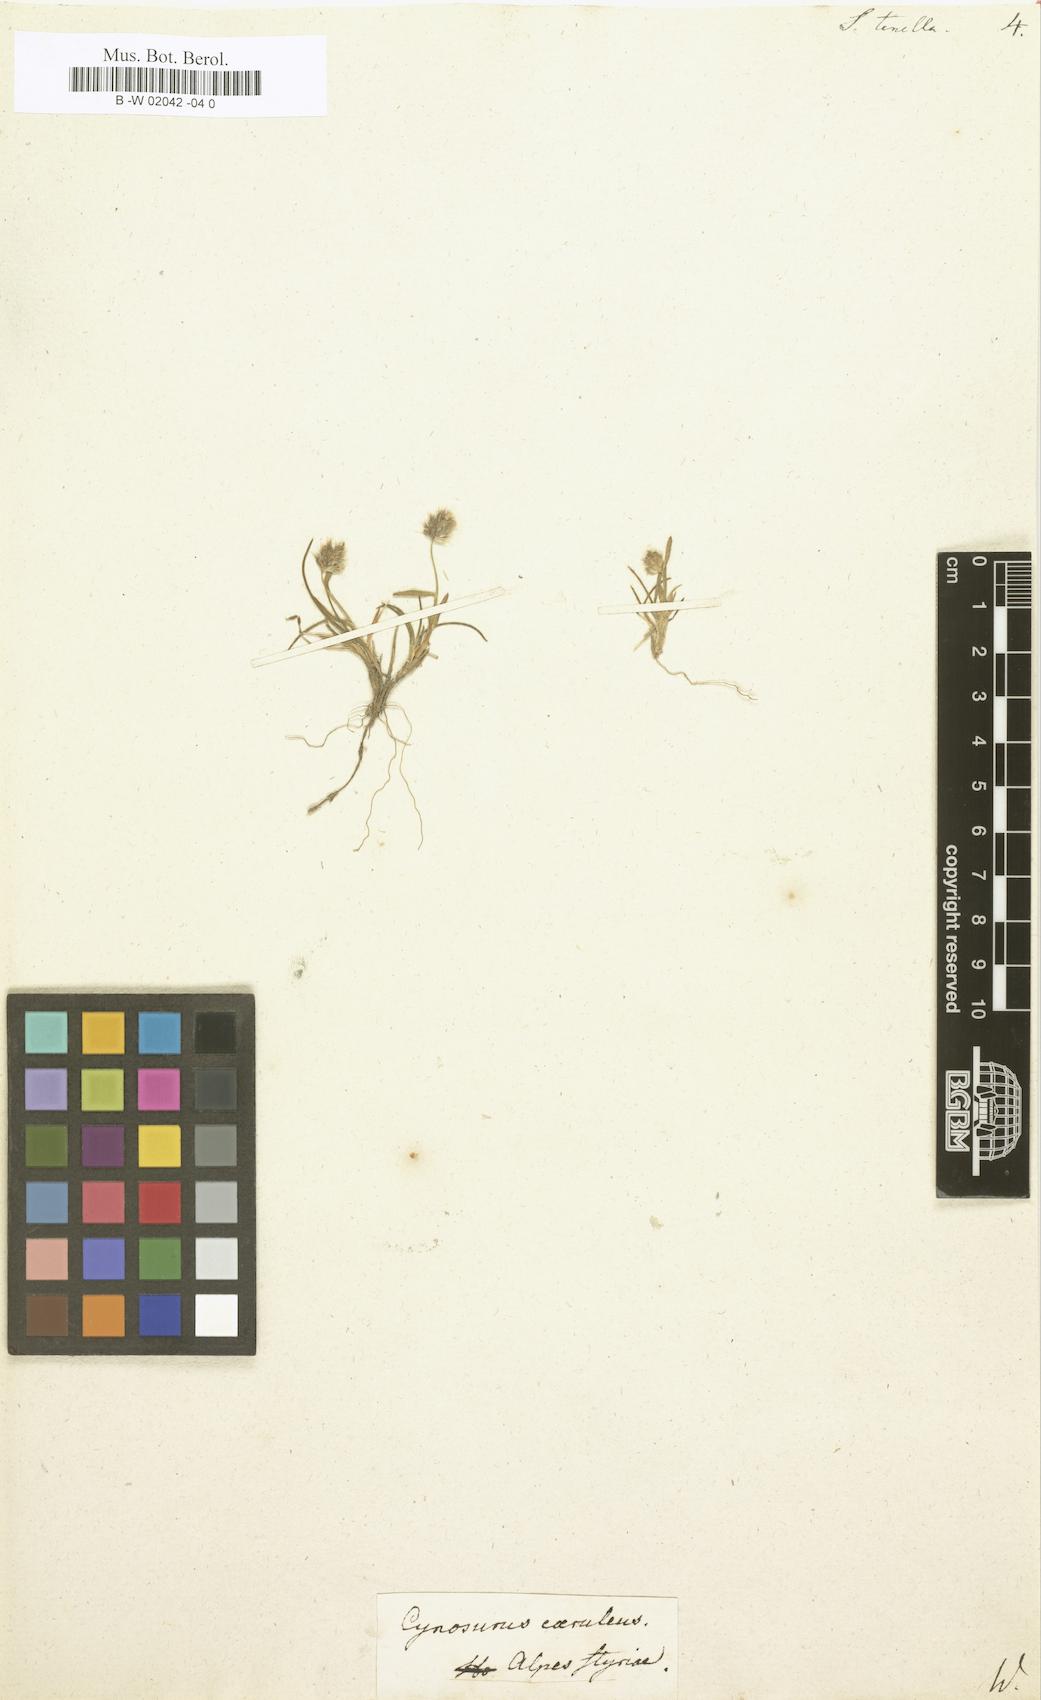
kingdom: Plantae
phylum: Tracheophyta
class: Liliopsida
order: Poales
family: Poaceae
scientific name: Poaceae
